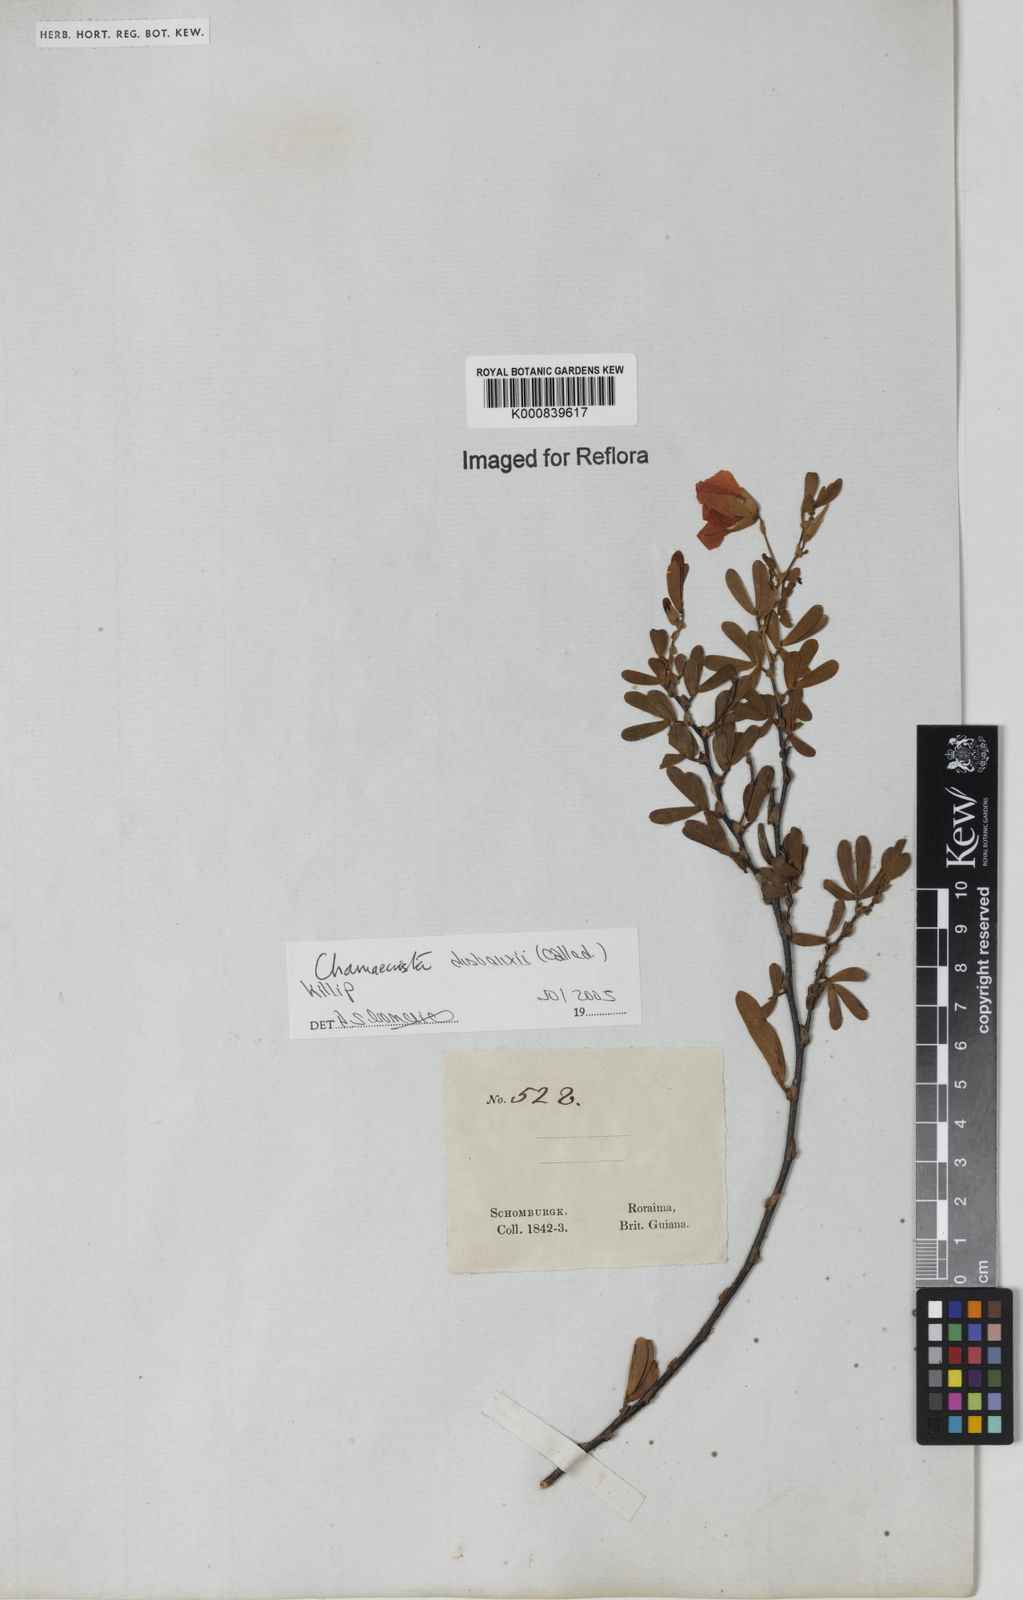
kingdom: Plantae
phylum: Tracheophyta
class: Magnoliopsida
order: Fabales
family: Fabaceae
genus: Chamaecrista
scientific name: Chamaecrista desvauxii
